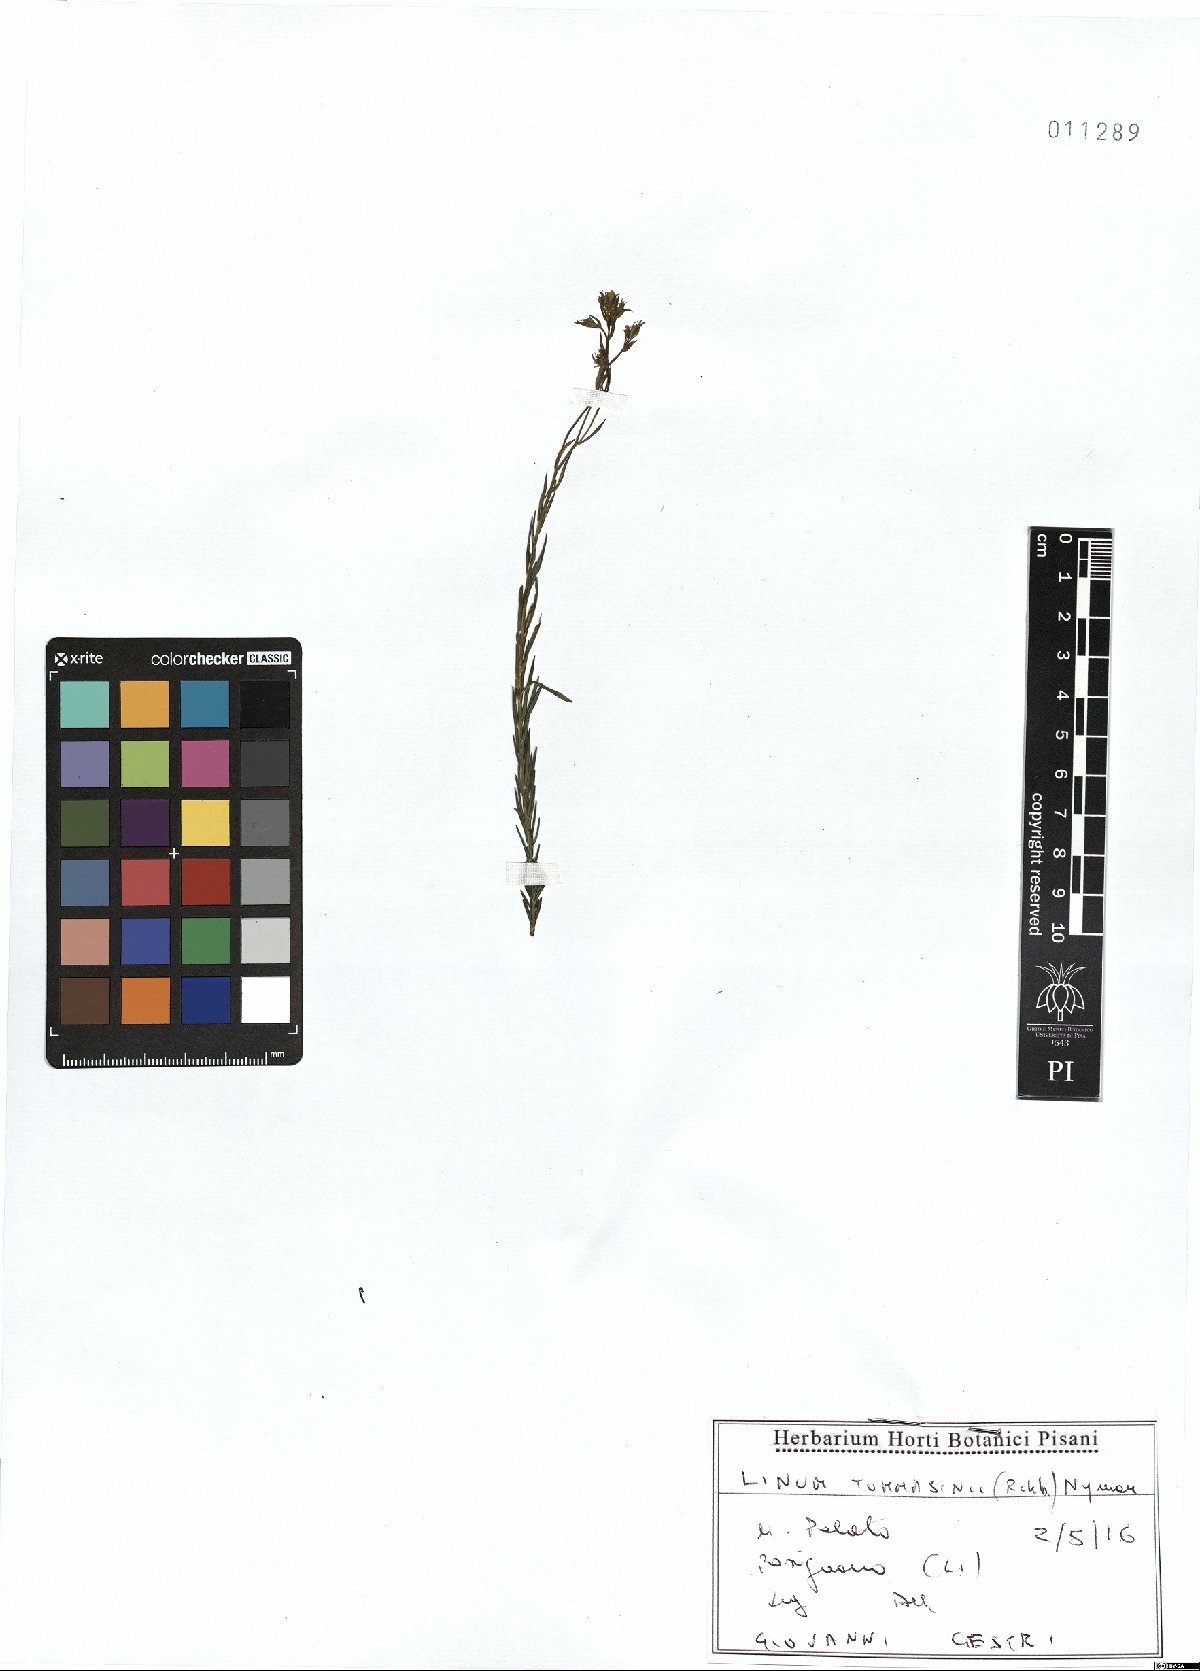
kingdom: Plantae
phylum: Tracheophyta
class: Magnoliopsida
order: Malpighiales
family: Linaceae
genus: Linum
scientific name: Linum austriacum
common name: Austrian flax
